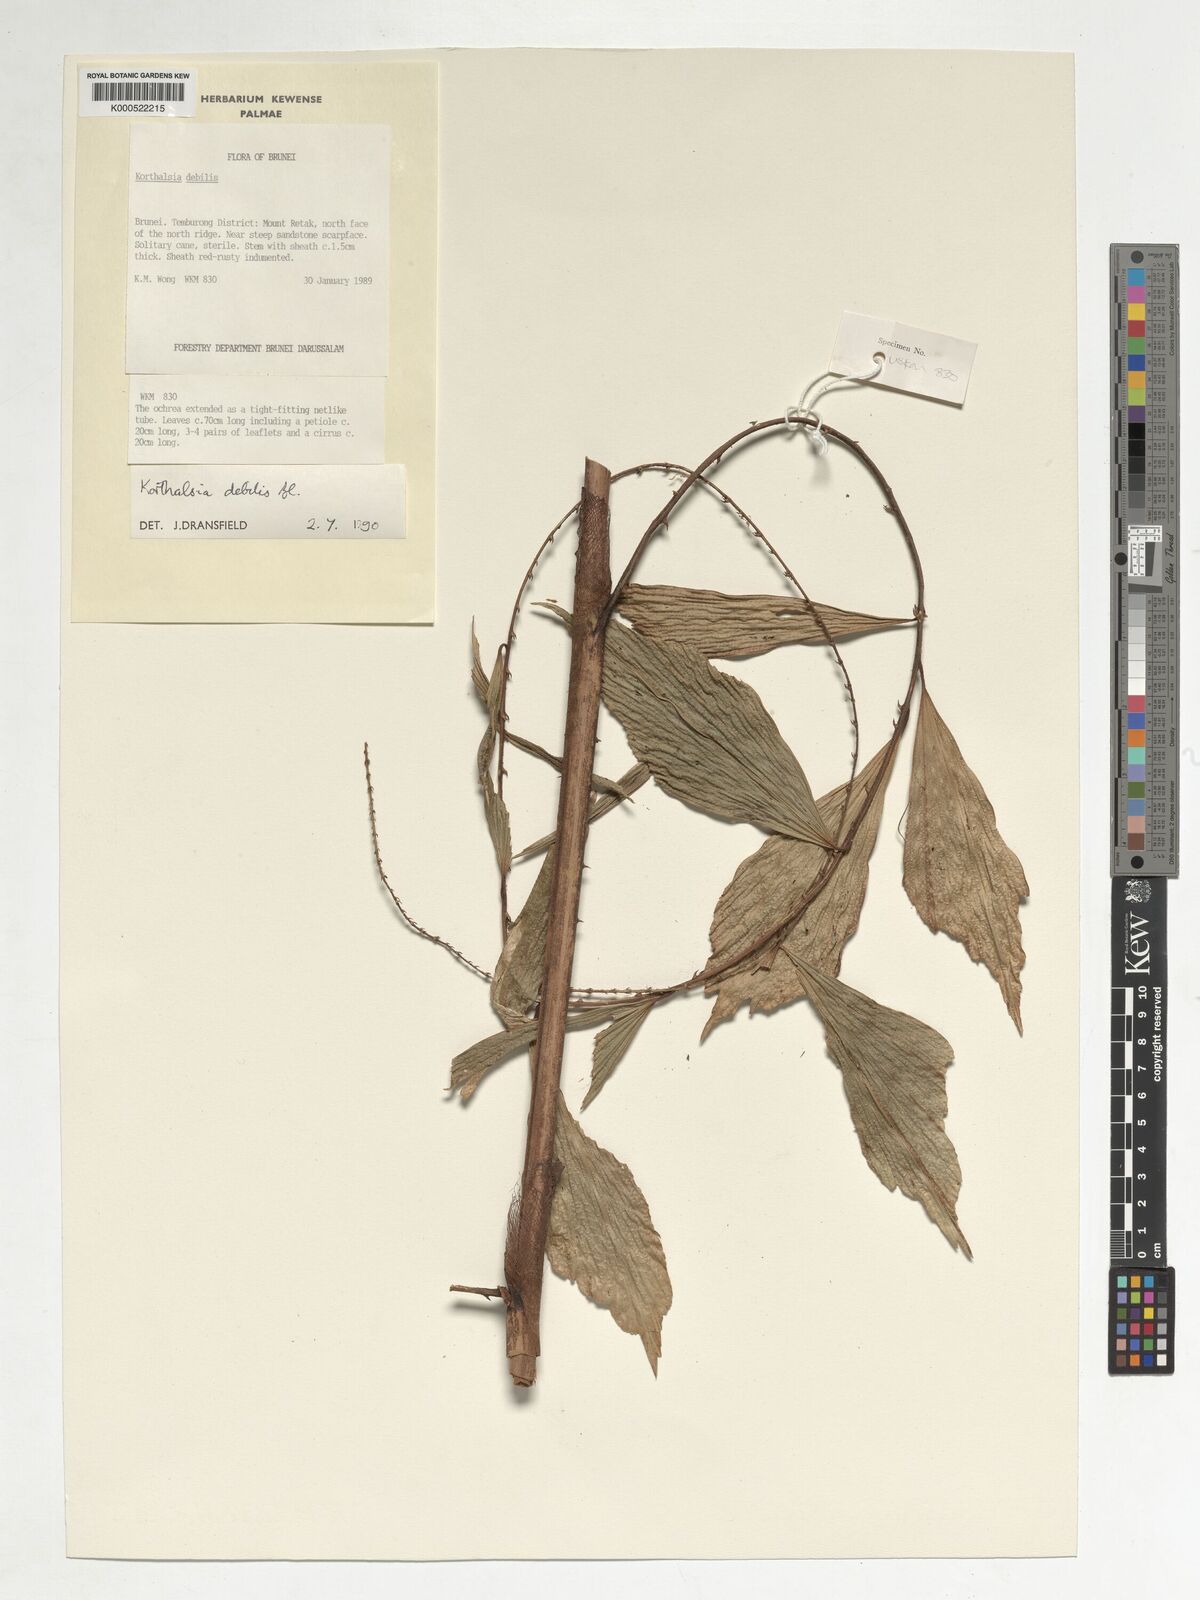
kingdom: Plantae
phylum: Tracheophyta
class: Liliopsida
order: Arecales
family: Arecaceae
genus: Korthalsia
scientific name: Korthalsia debilis
